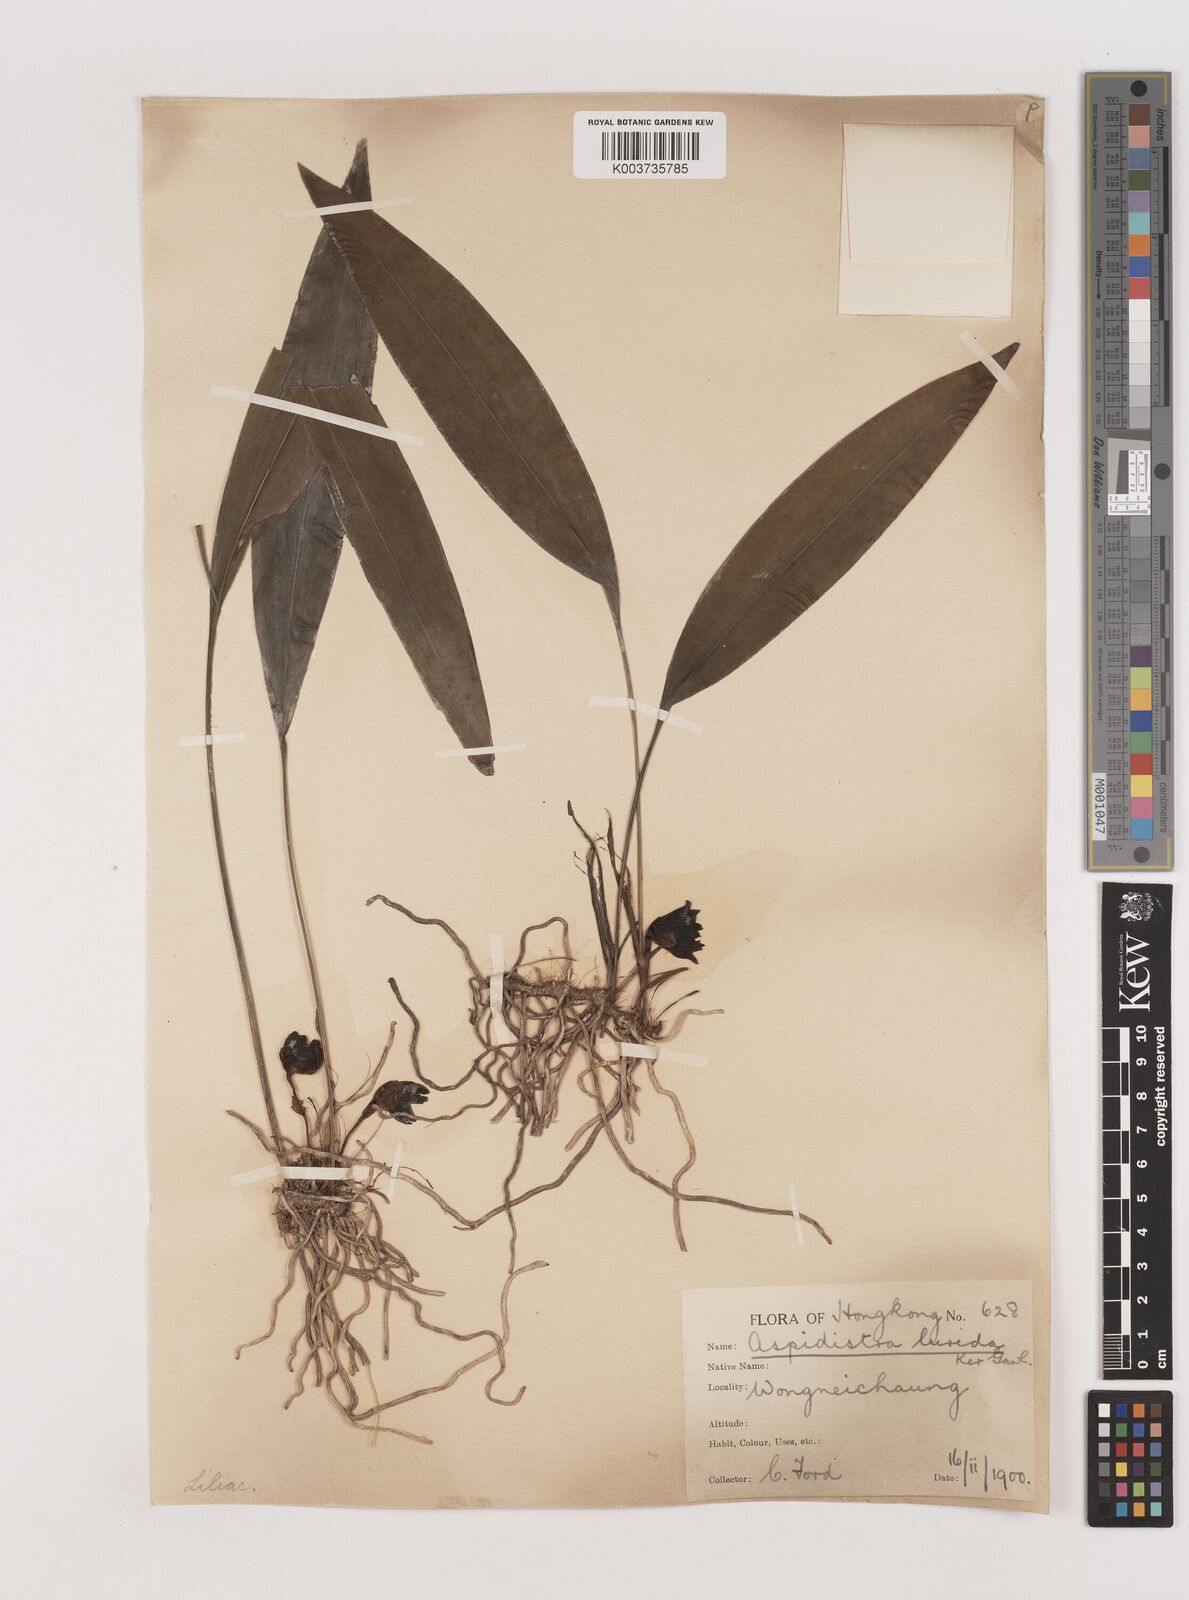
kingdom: Plantae
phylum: Tracheophyta
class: Liliopsida
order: Asparagales
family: Asparagaceae
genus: Aspidistra
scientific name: Aspidistra lurida
